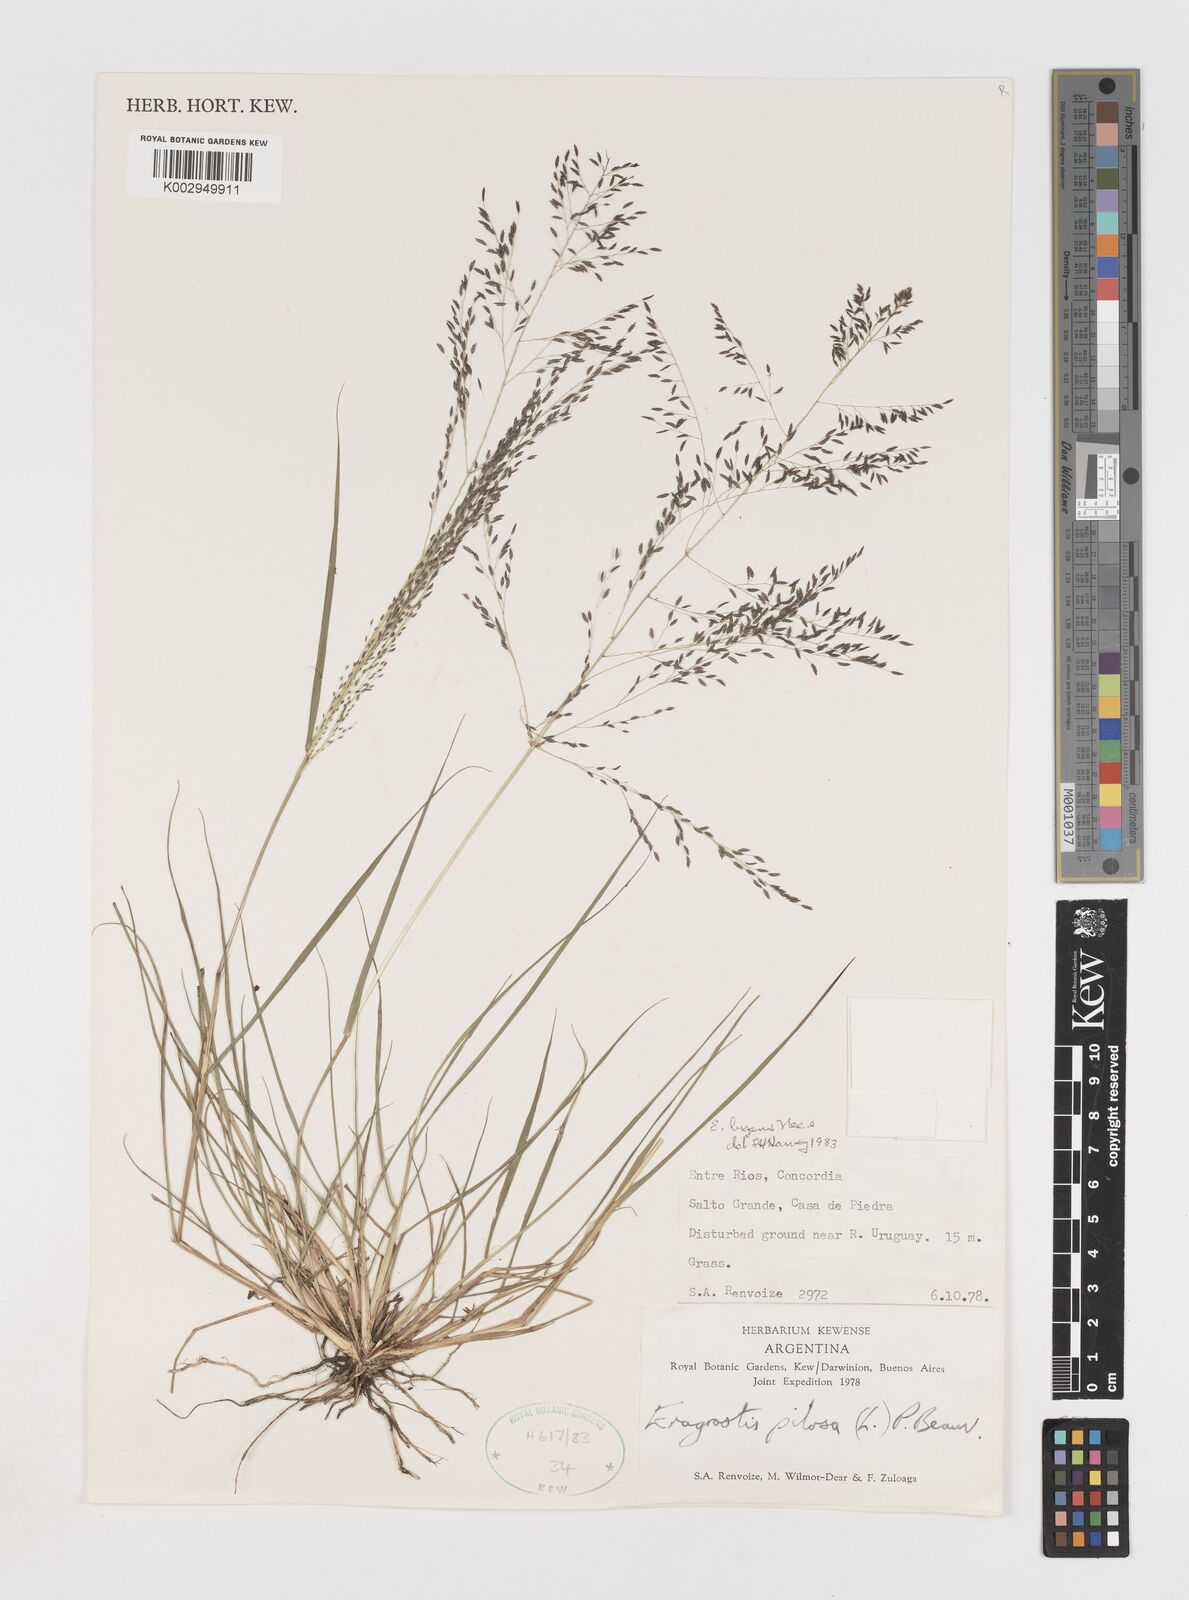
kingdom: Plantae
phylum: Tracheophyta
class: Liliopsida
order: Poales
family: Poaceae
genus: Eragrostis
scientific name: Eragrostis lugens
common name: Mourning love grass
